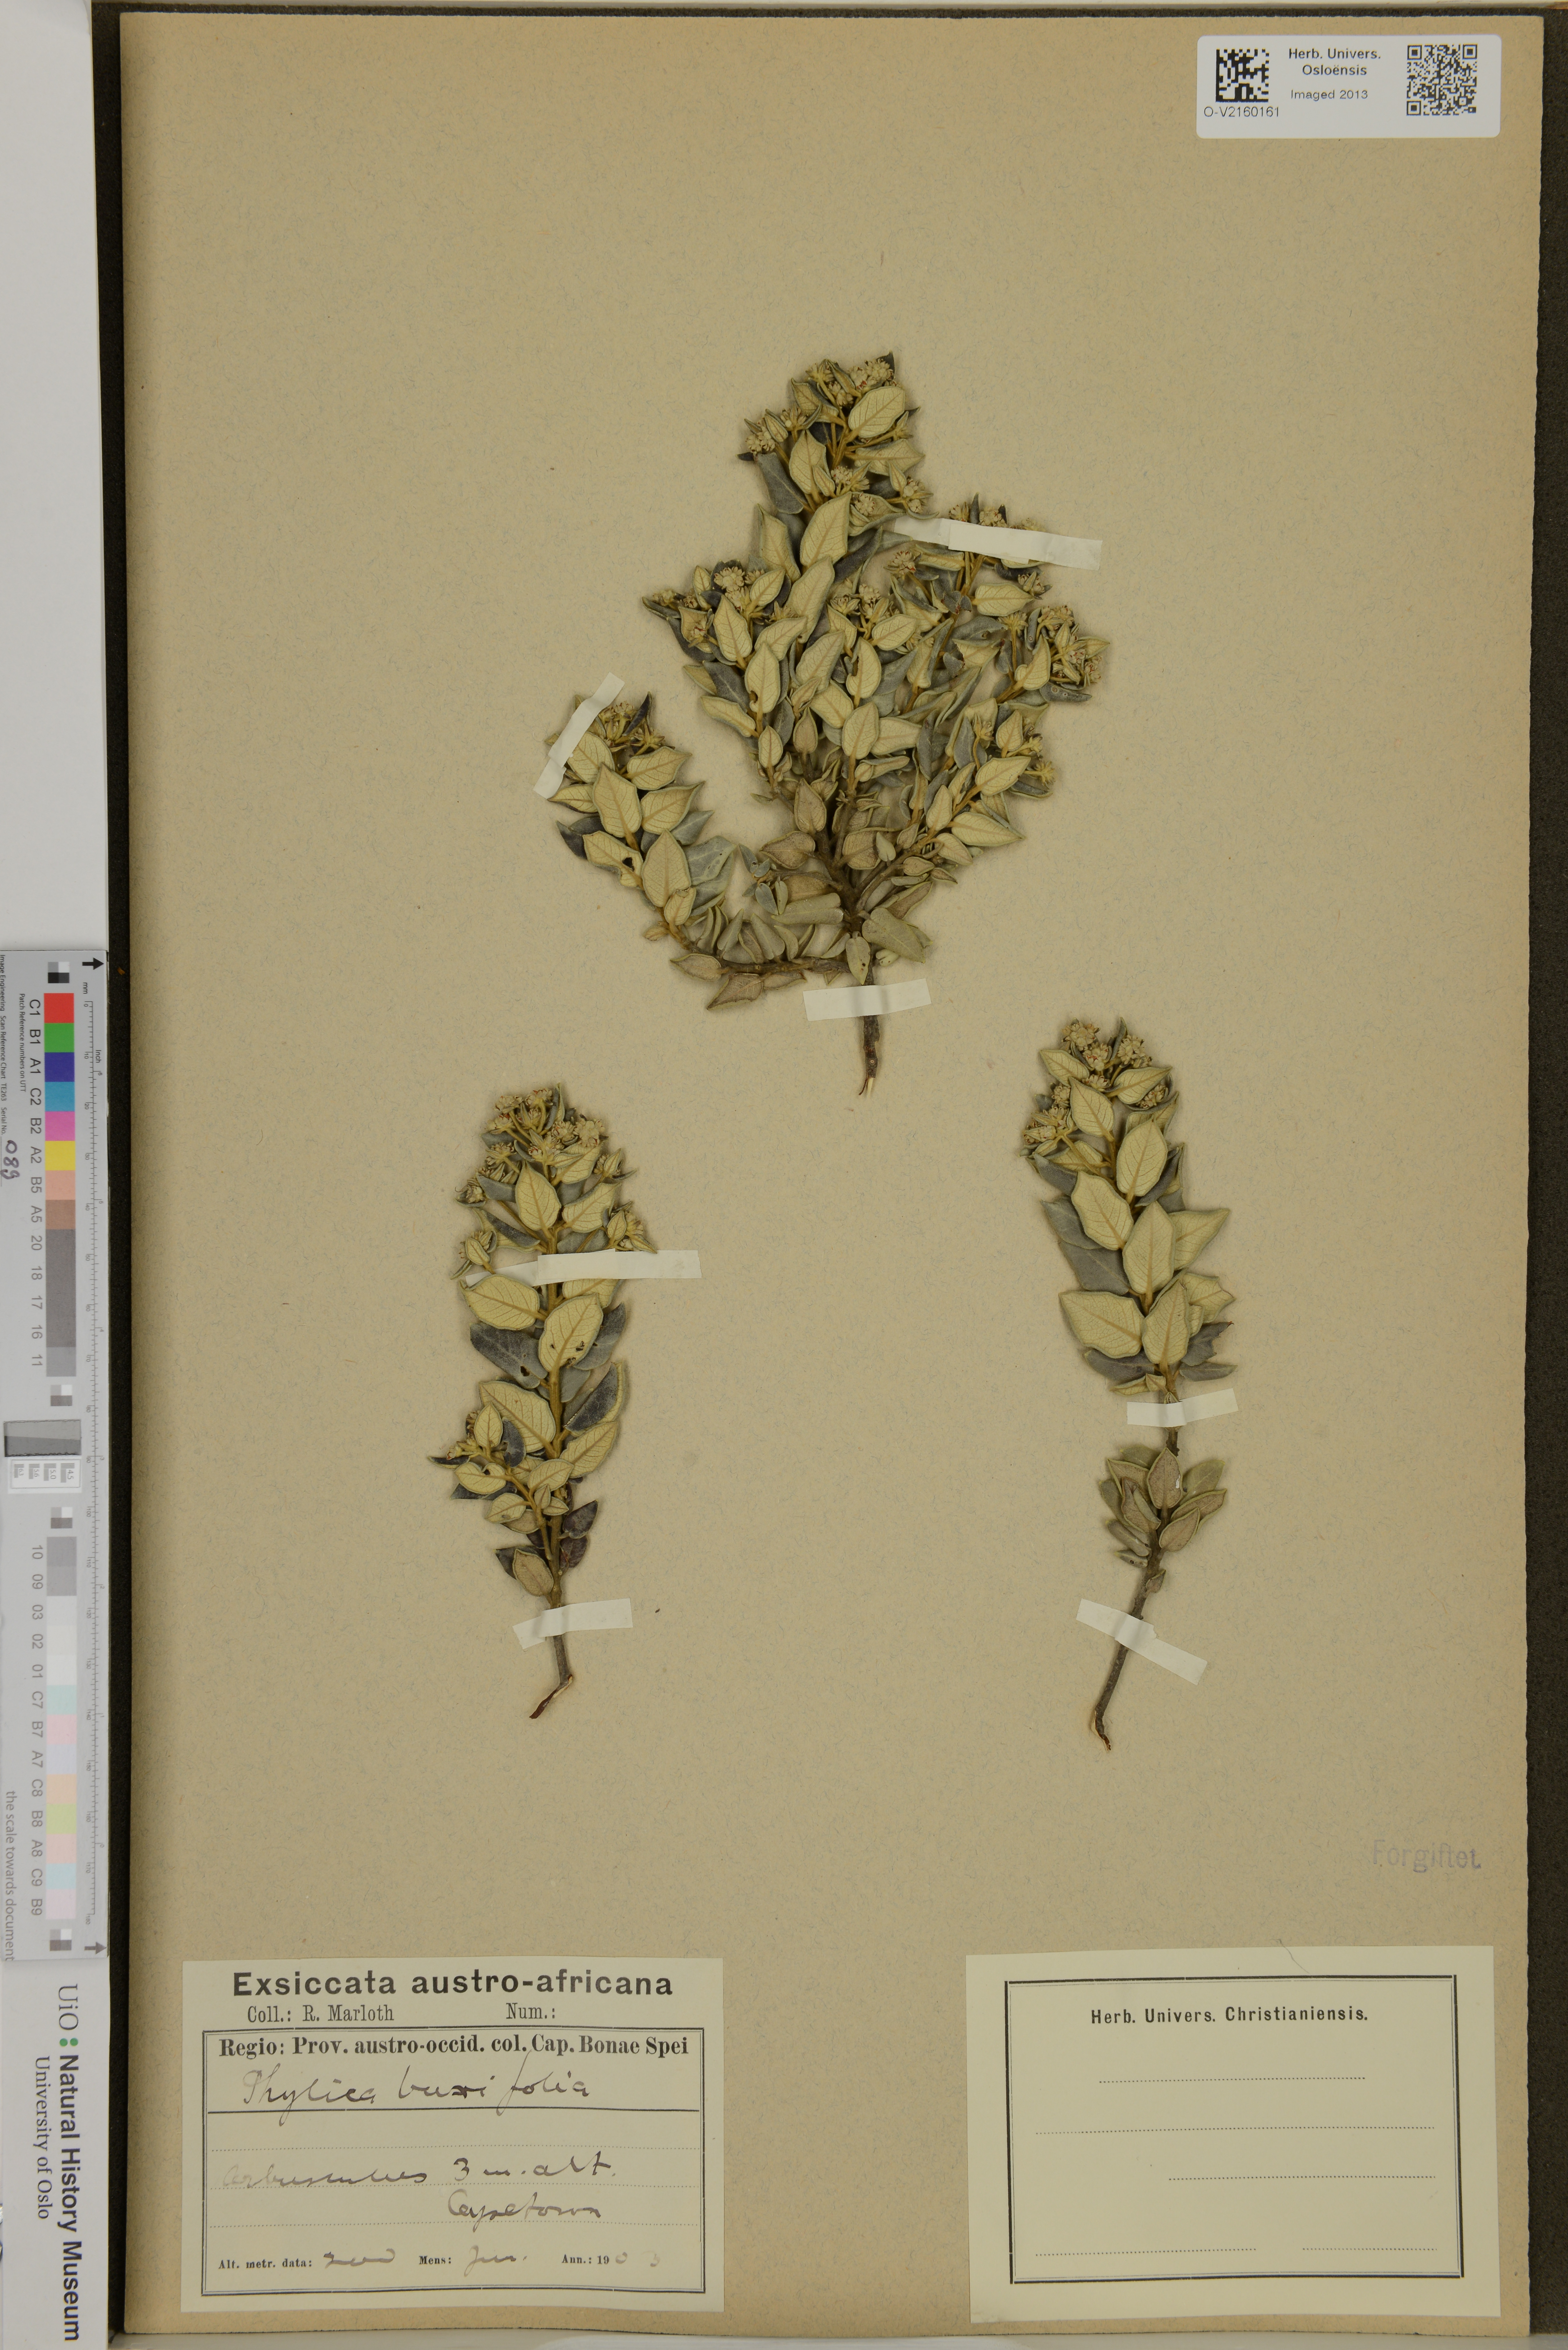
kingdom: Plantae
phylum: Tracheophyta
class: Magnoliopsida
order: Rosales
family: Rhamnaceae
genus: Phylica
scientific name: Phylica buxifolia
